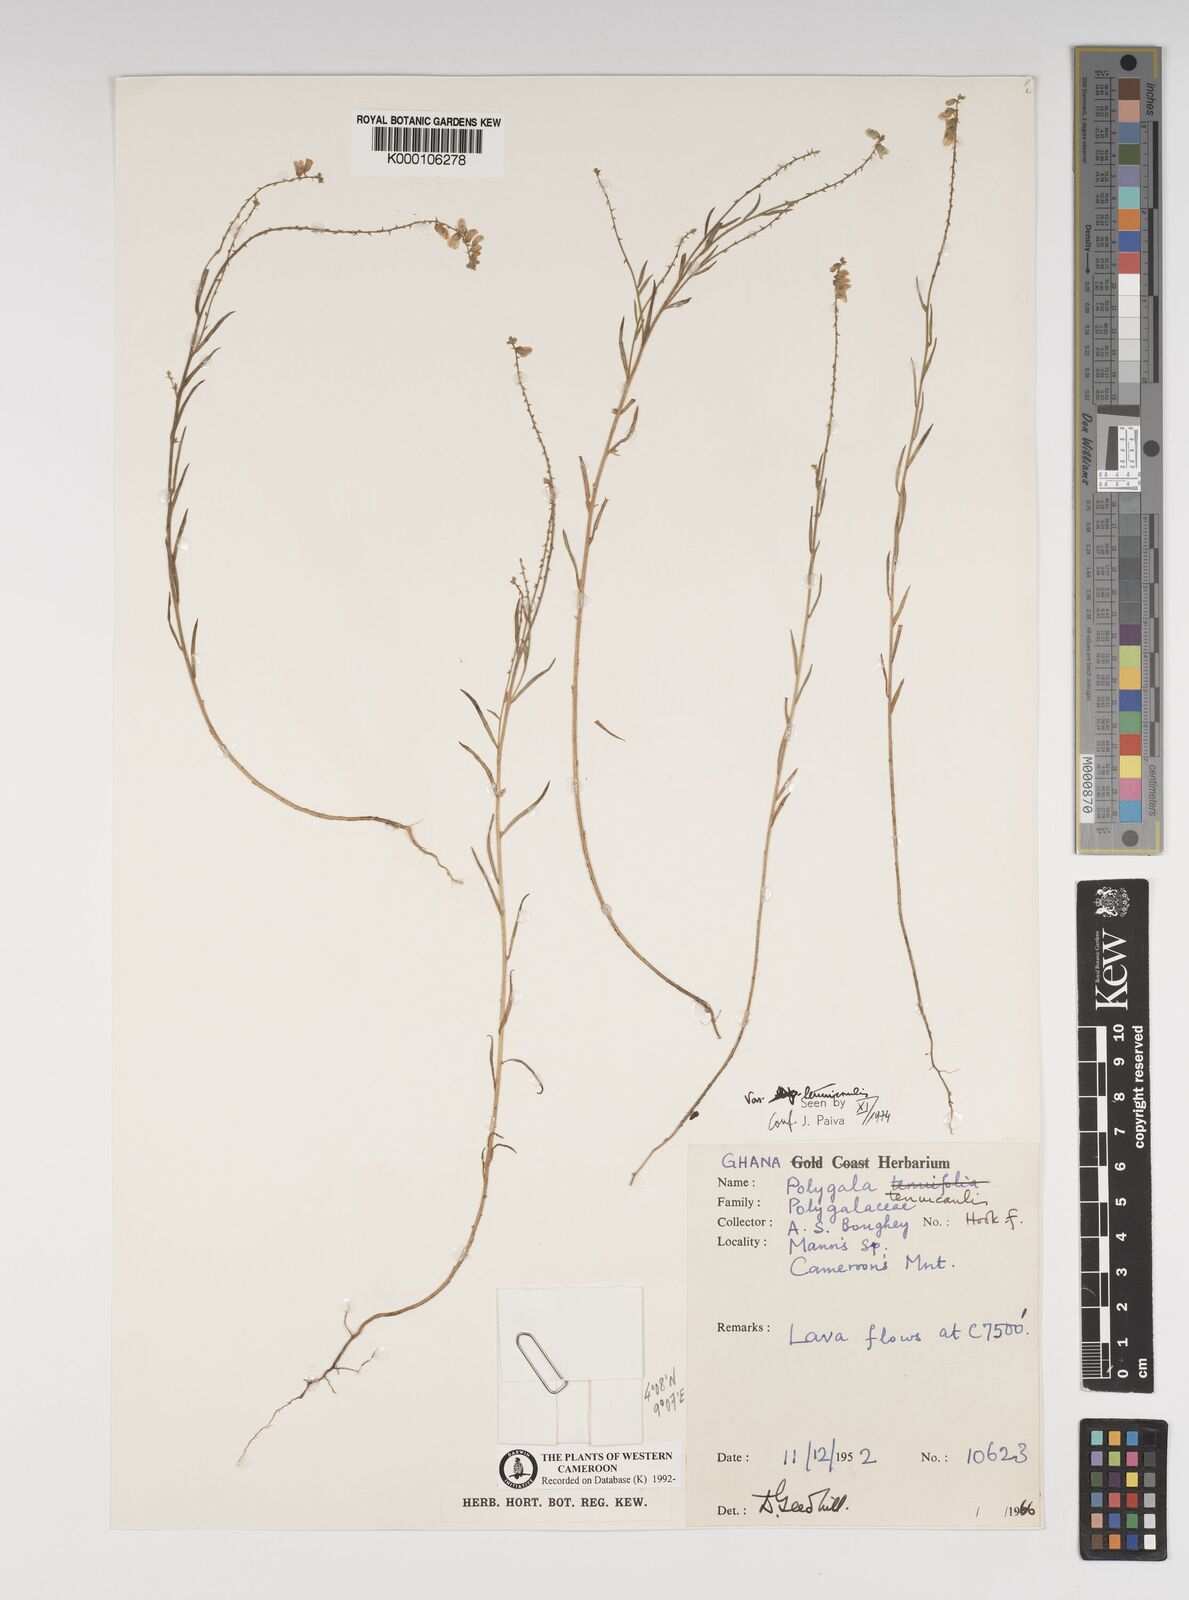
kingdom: Plantae
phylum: Tracheophyta
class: Magnoliopsida
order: Fabales
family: Polygalaceae
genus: Polygala
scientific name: Polygala tenuicaulis
